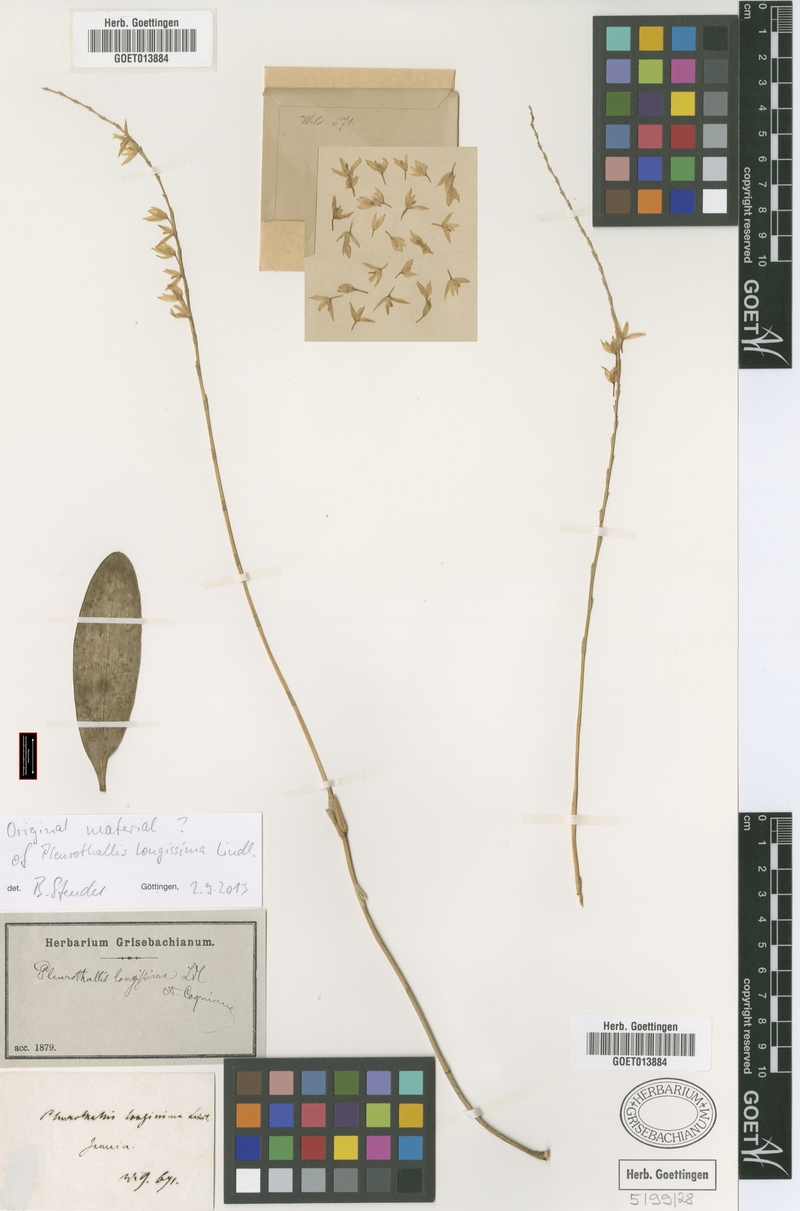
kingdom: Plantae
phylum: Tracheophyta
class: Liliopsida
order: Asparagales
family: Orchidaceae
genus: Pleurothallis
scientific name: Pleurothallis quadrifida
